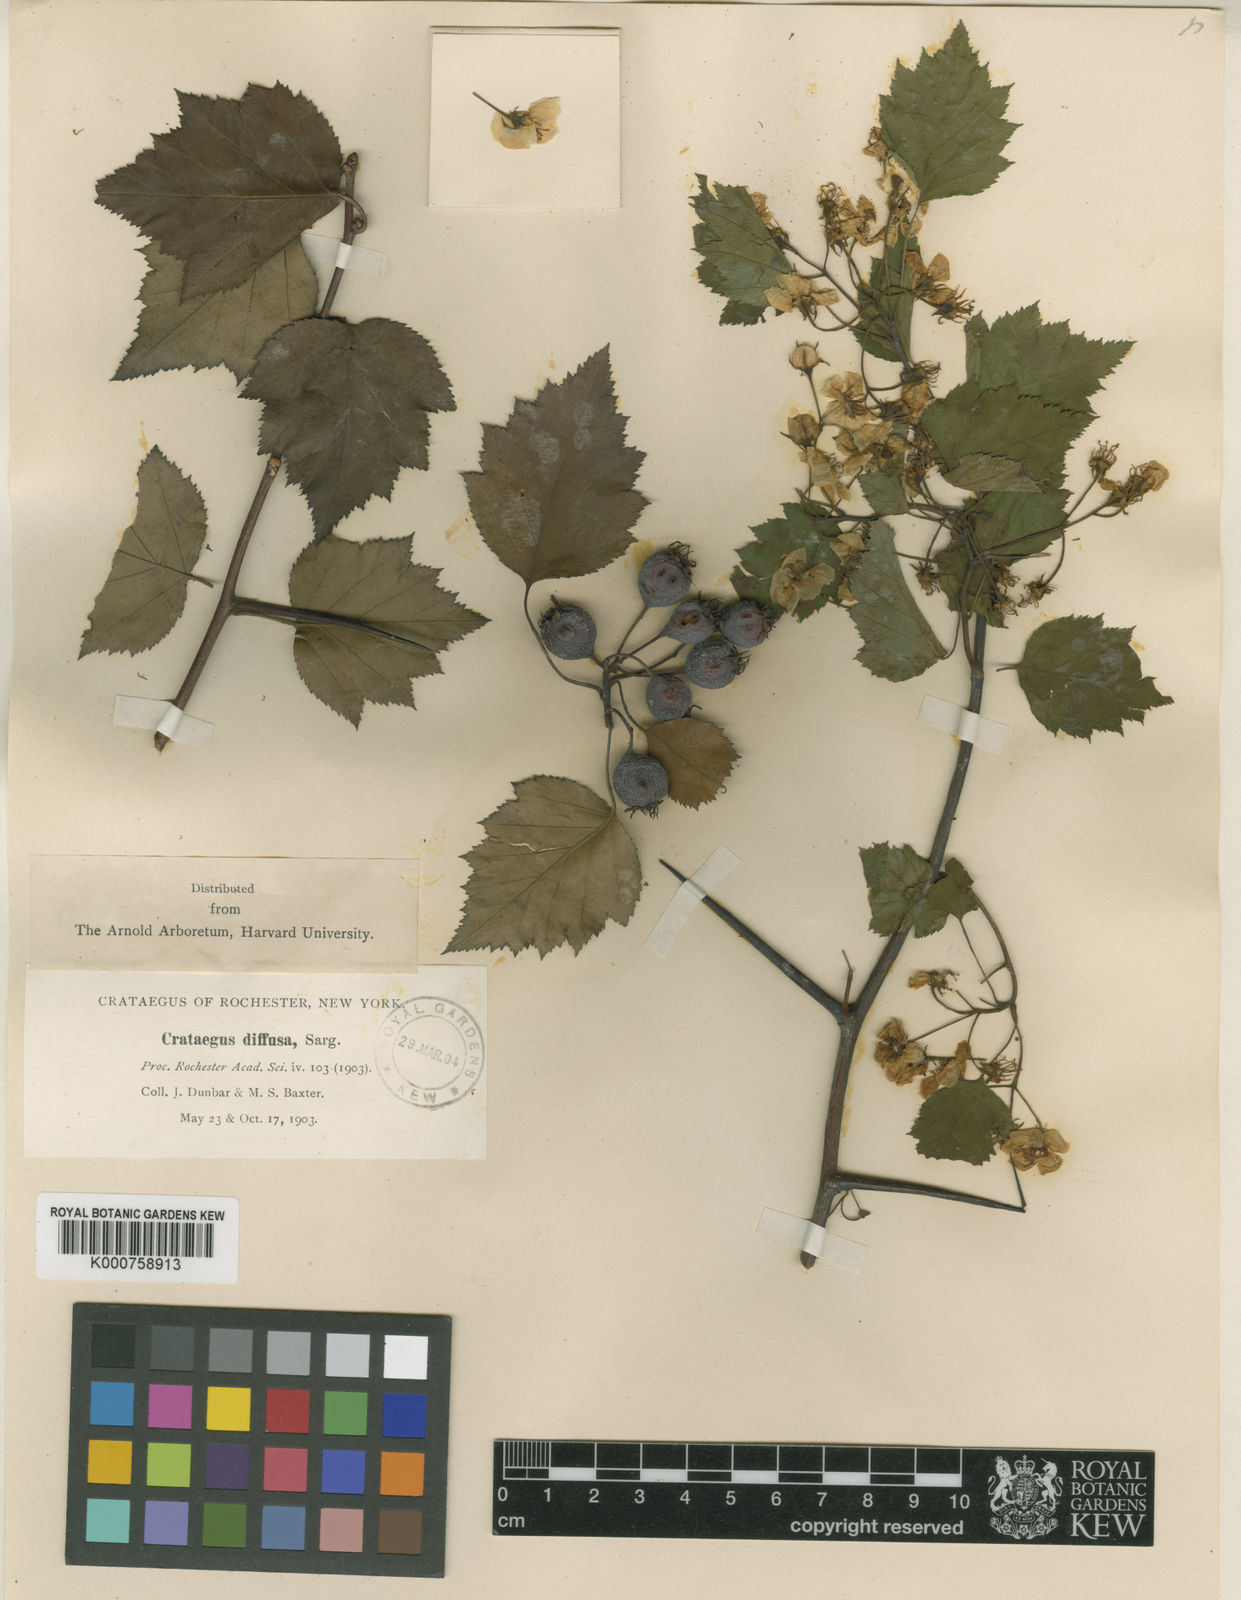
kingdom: Plantae
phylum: Tracheophyta
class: Magnoliopsida
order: Rosales
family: Rosaceae
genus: Crataegus
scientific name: Crataegus iracunda
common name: Stolon-bearing hawthorn
